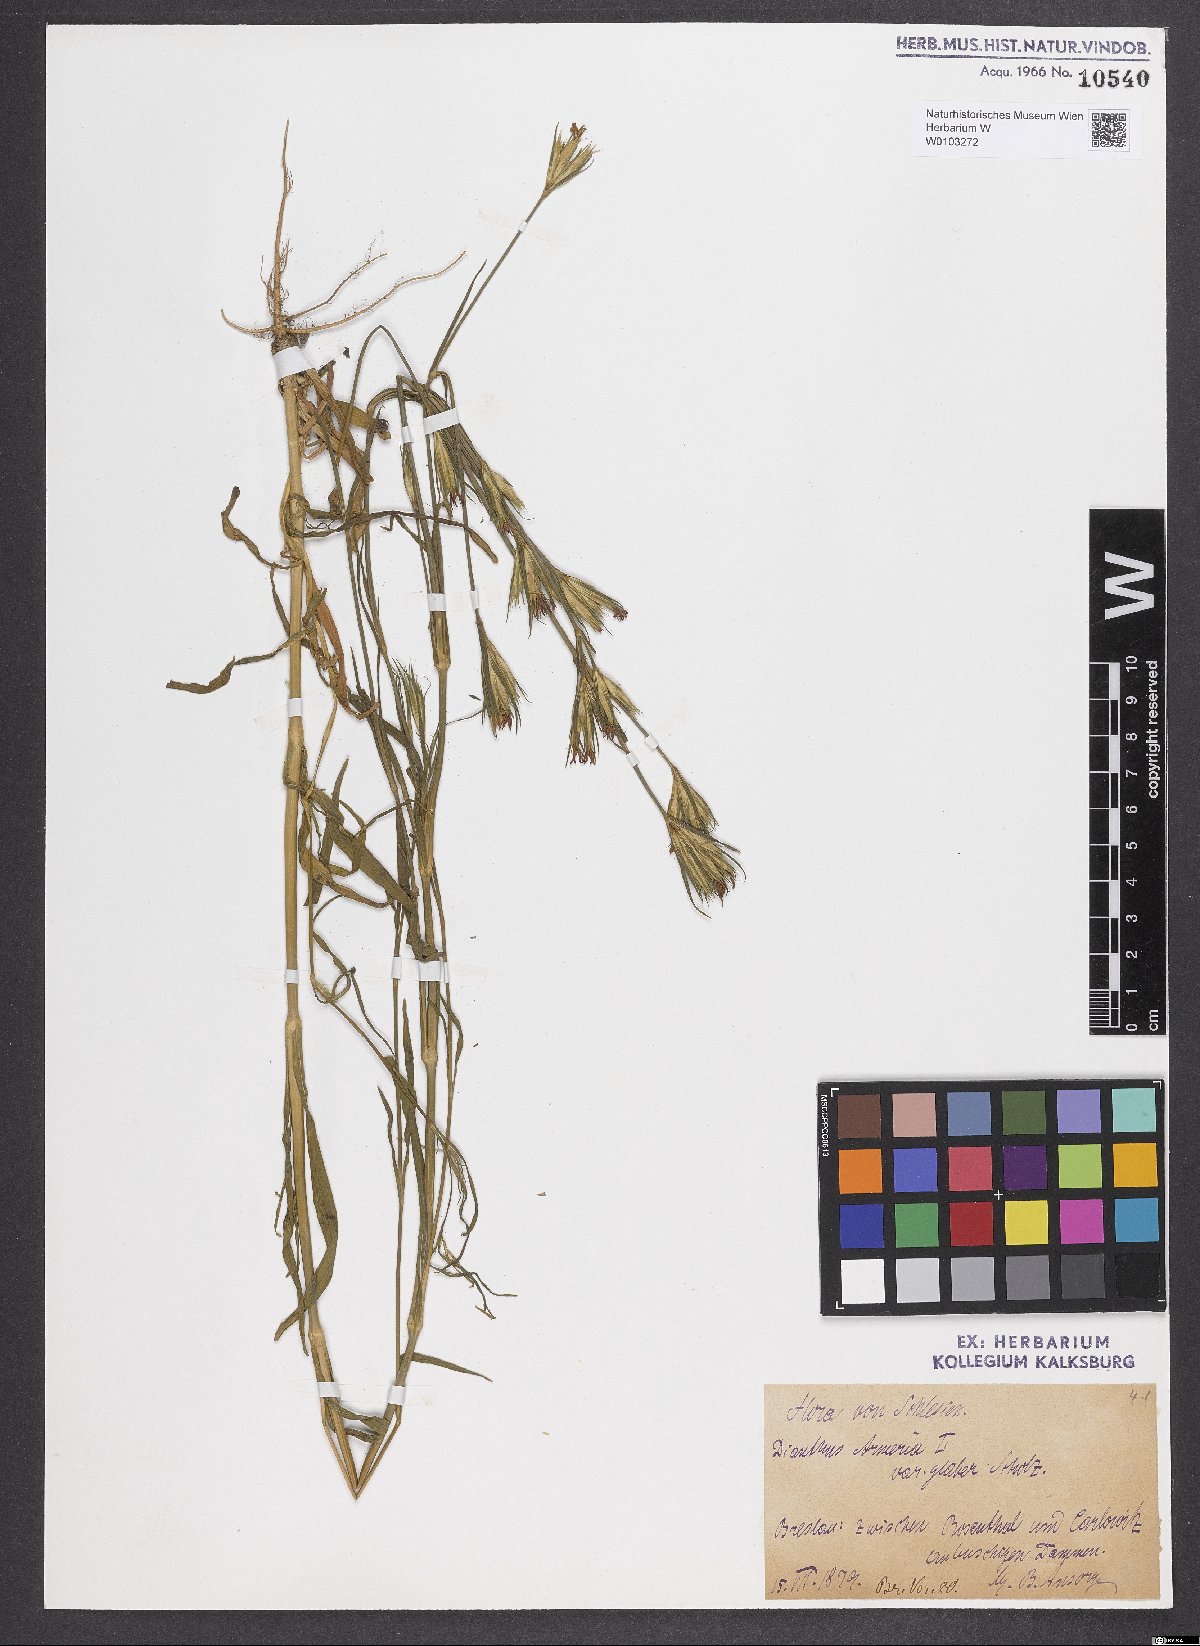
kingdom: Plantae
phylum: Tracheophyta
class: Magnoliopsida
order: Caryophyllales
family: Caryophyllaceae
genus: Dianthus
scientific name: Dianthus armeria
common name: Deptford pink
